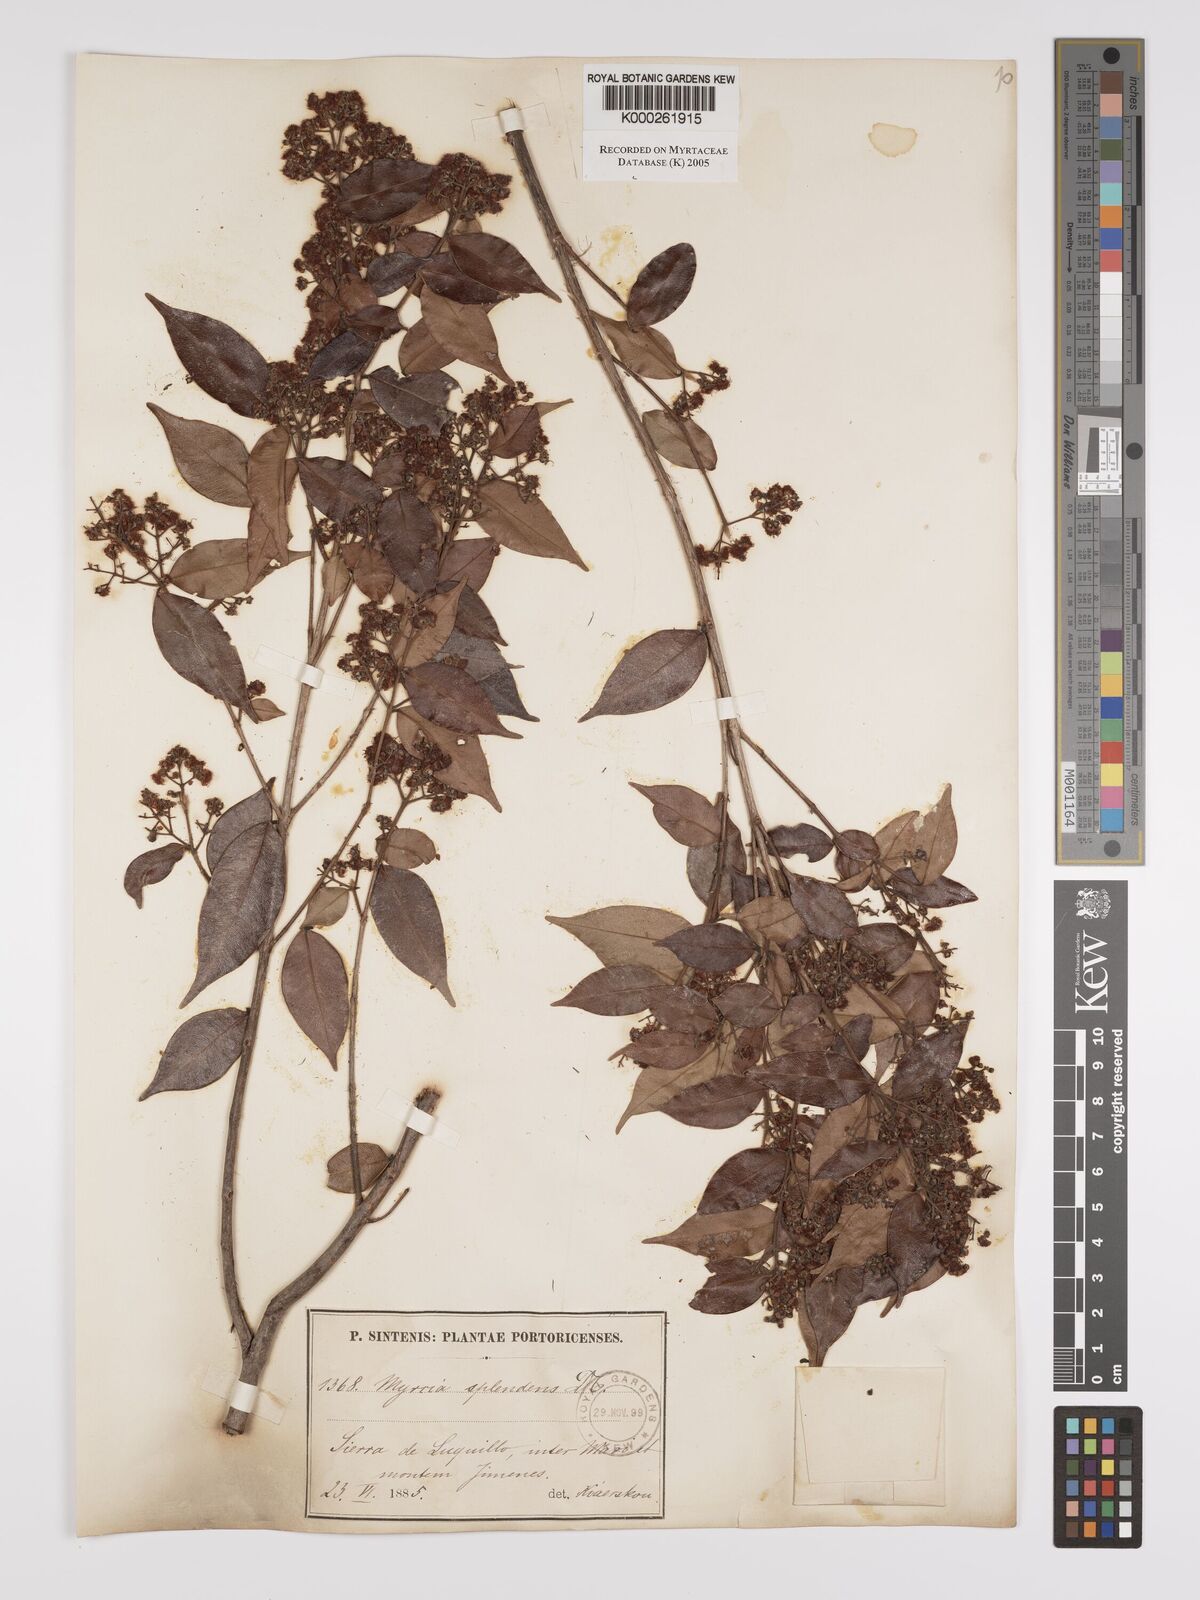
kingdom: Plantae
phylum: Tracheophyta
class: Magnoliopsida
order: Myrtales
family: Myrtaceae
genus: Myrcia
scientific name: Myrcia splendens
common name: Surinam cherry
